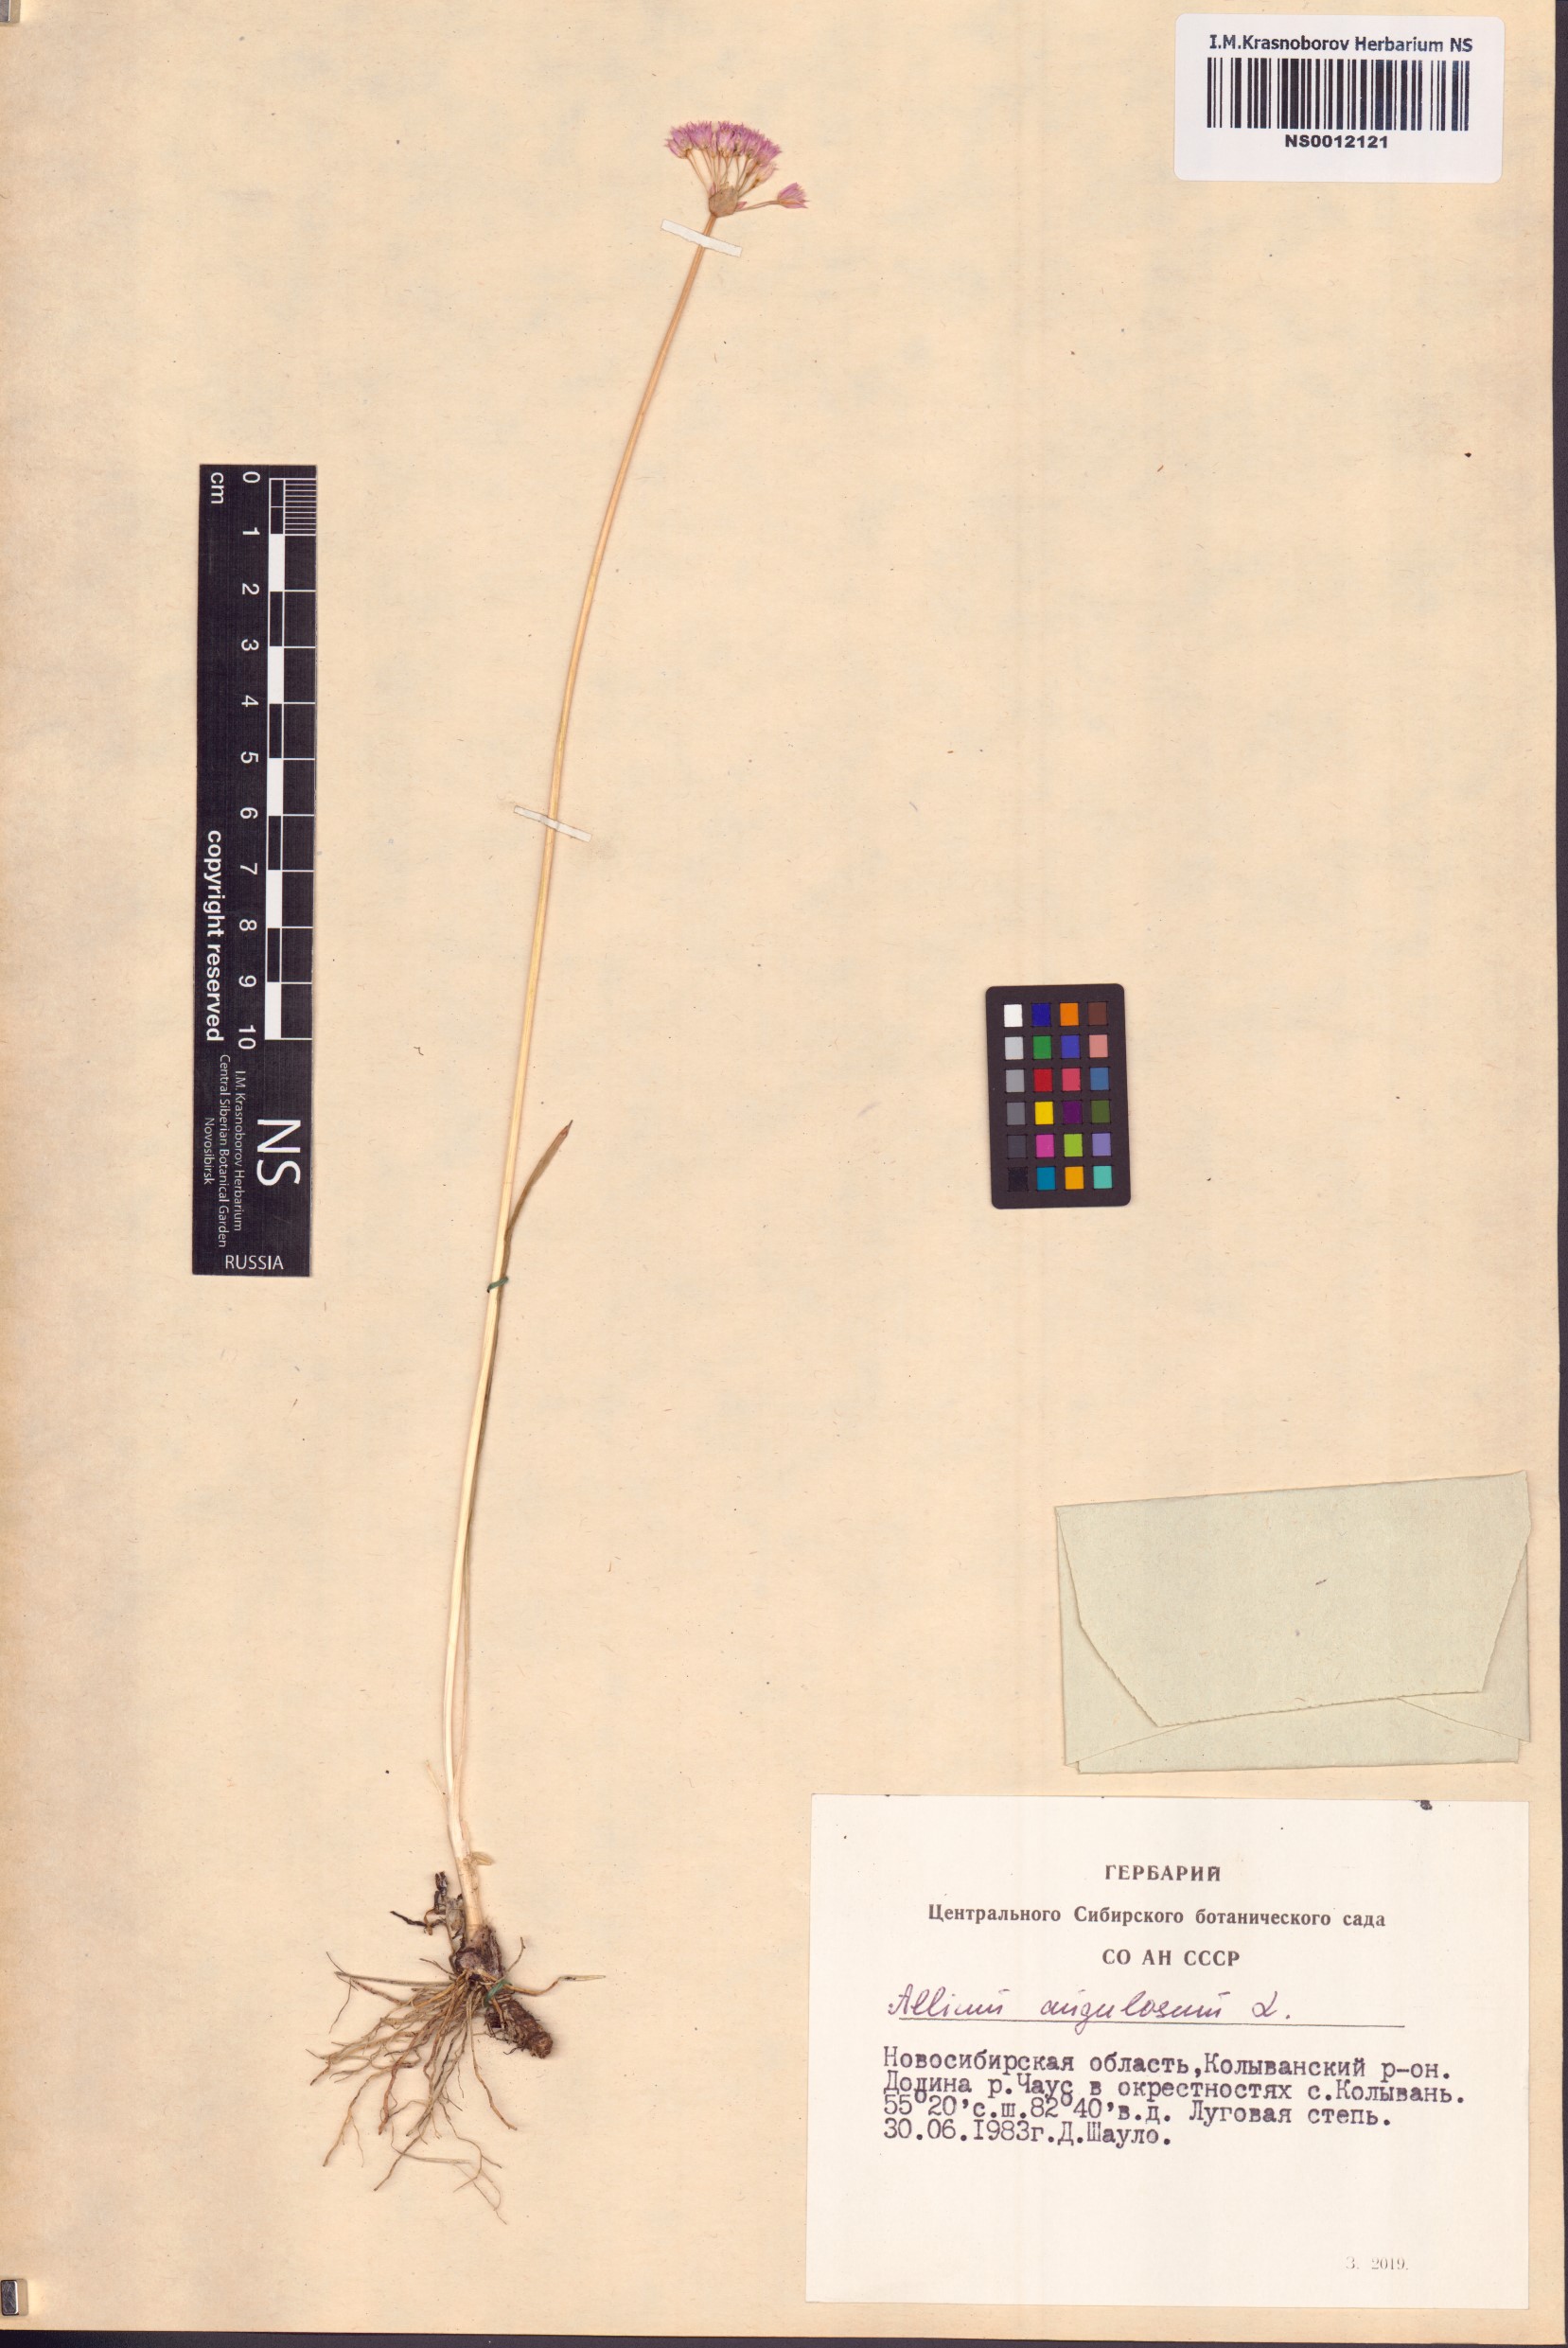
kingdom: Plantae
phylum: Tracheophyta
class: Liliopsida
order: Asparagales
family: Amaryllidaceae
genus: Allium
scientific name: Allium angulosum
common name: Mouse garlic
